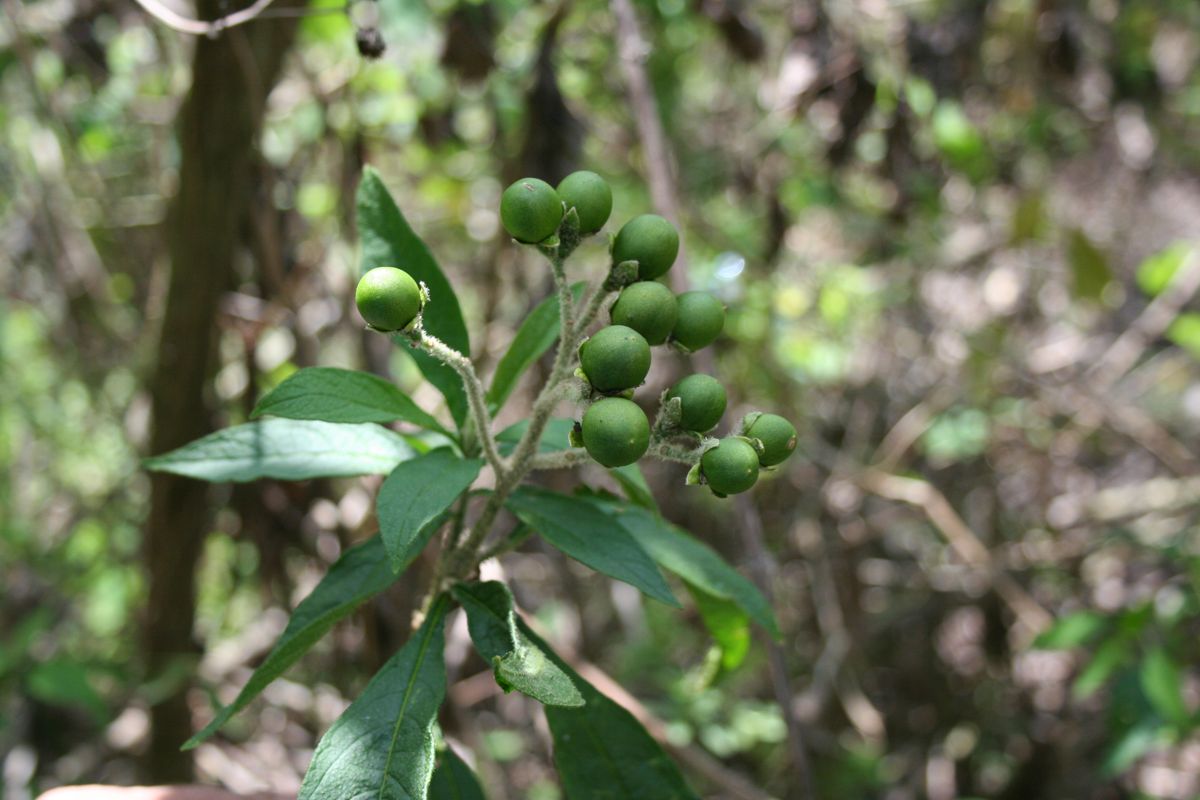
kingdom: Plantae
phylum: Tracheophyta
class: Magnoliopsida
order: Solanales
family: Solanaceae
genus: Solanum
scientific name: Solanum umbellatum
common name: Nightshade
